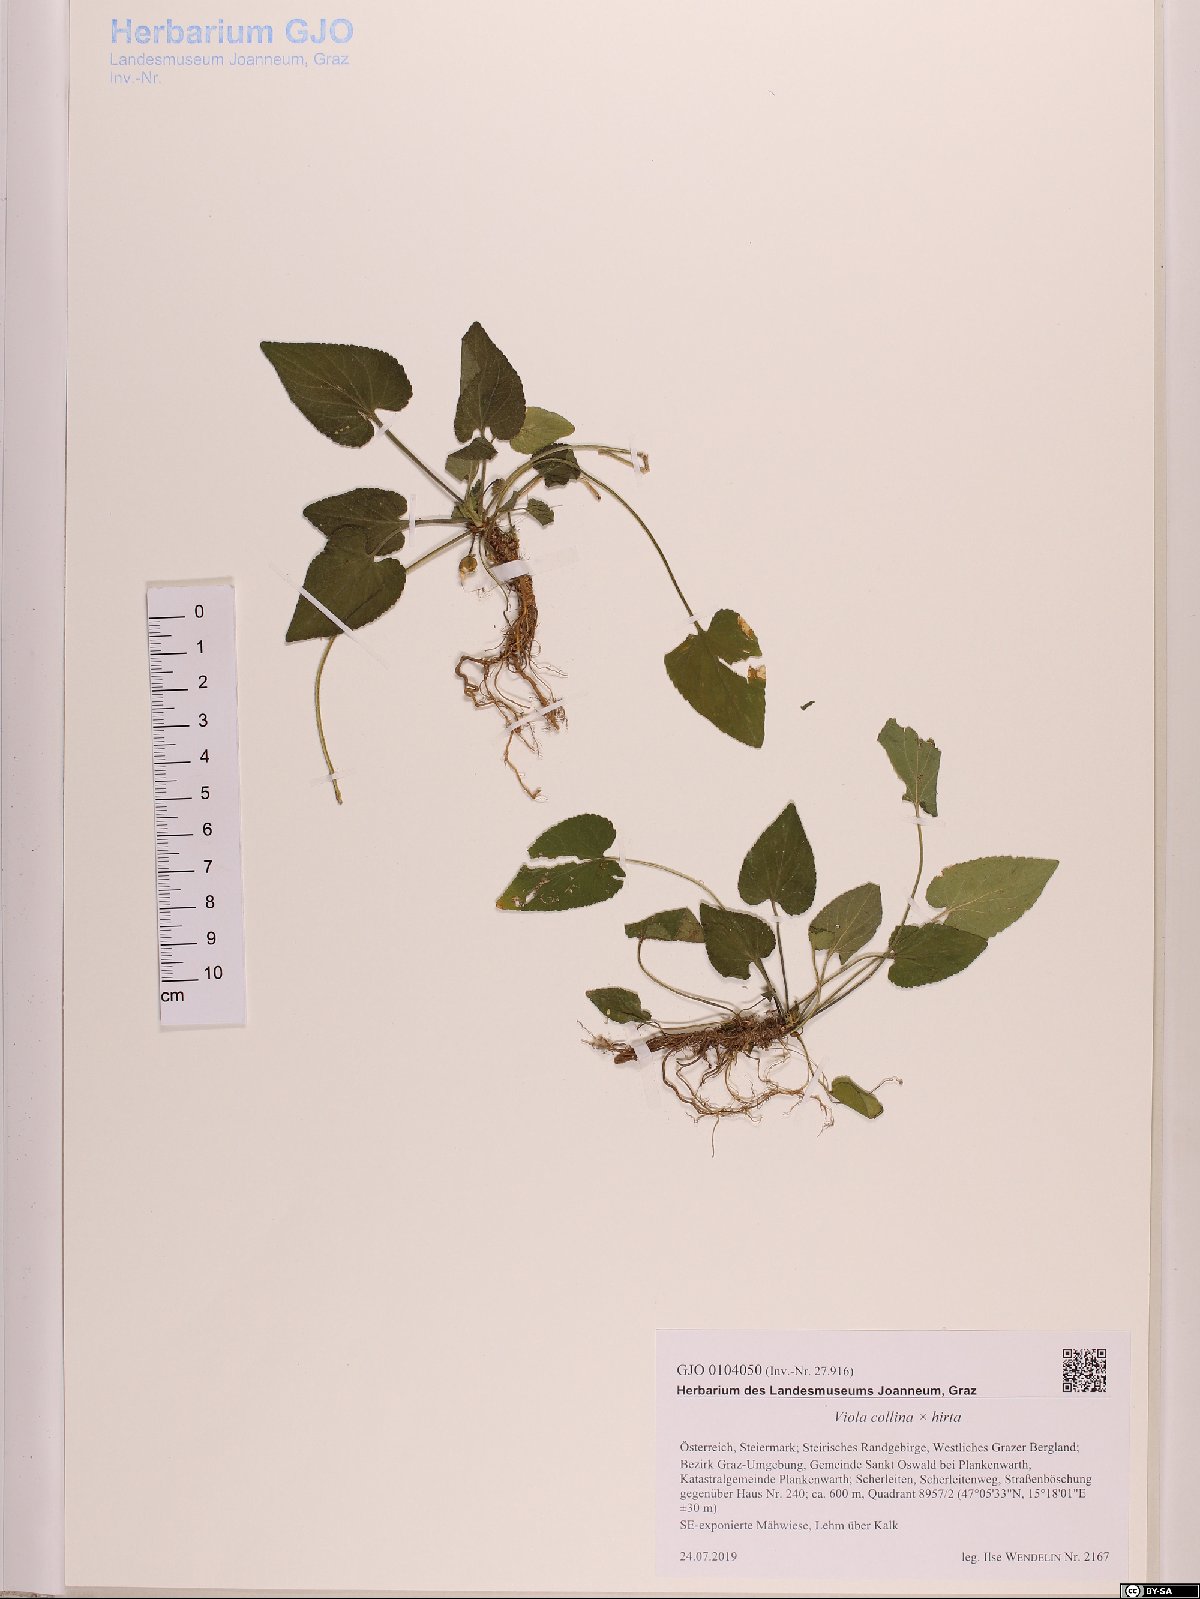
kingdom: Plantae
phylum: Tracheophyta
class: Magnoliopsida
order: Malpighiales
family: Violaceae
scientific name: Violaceae
